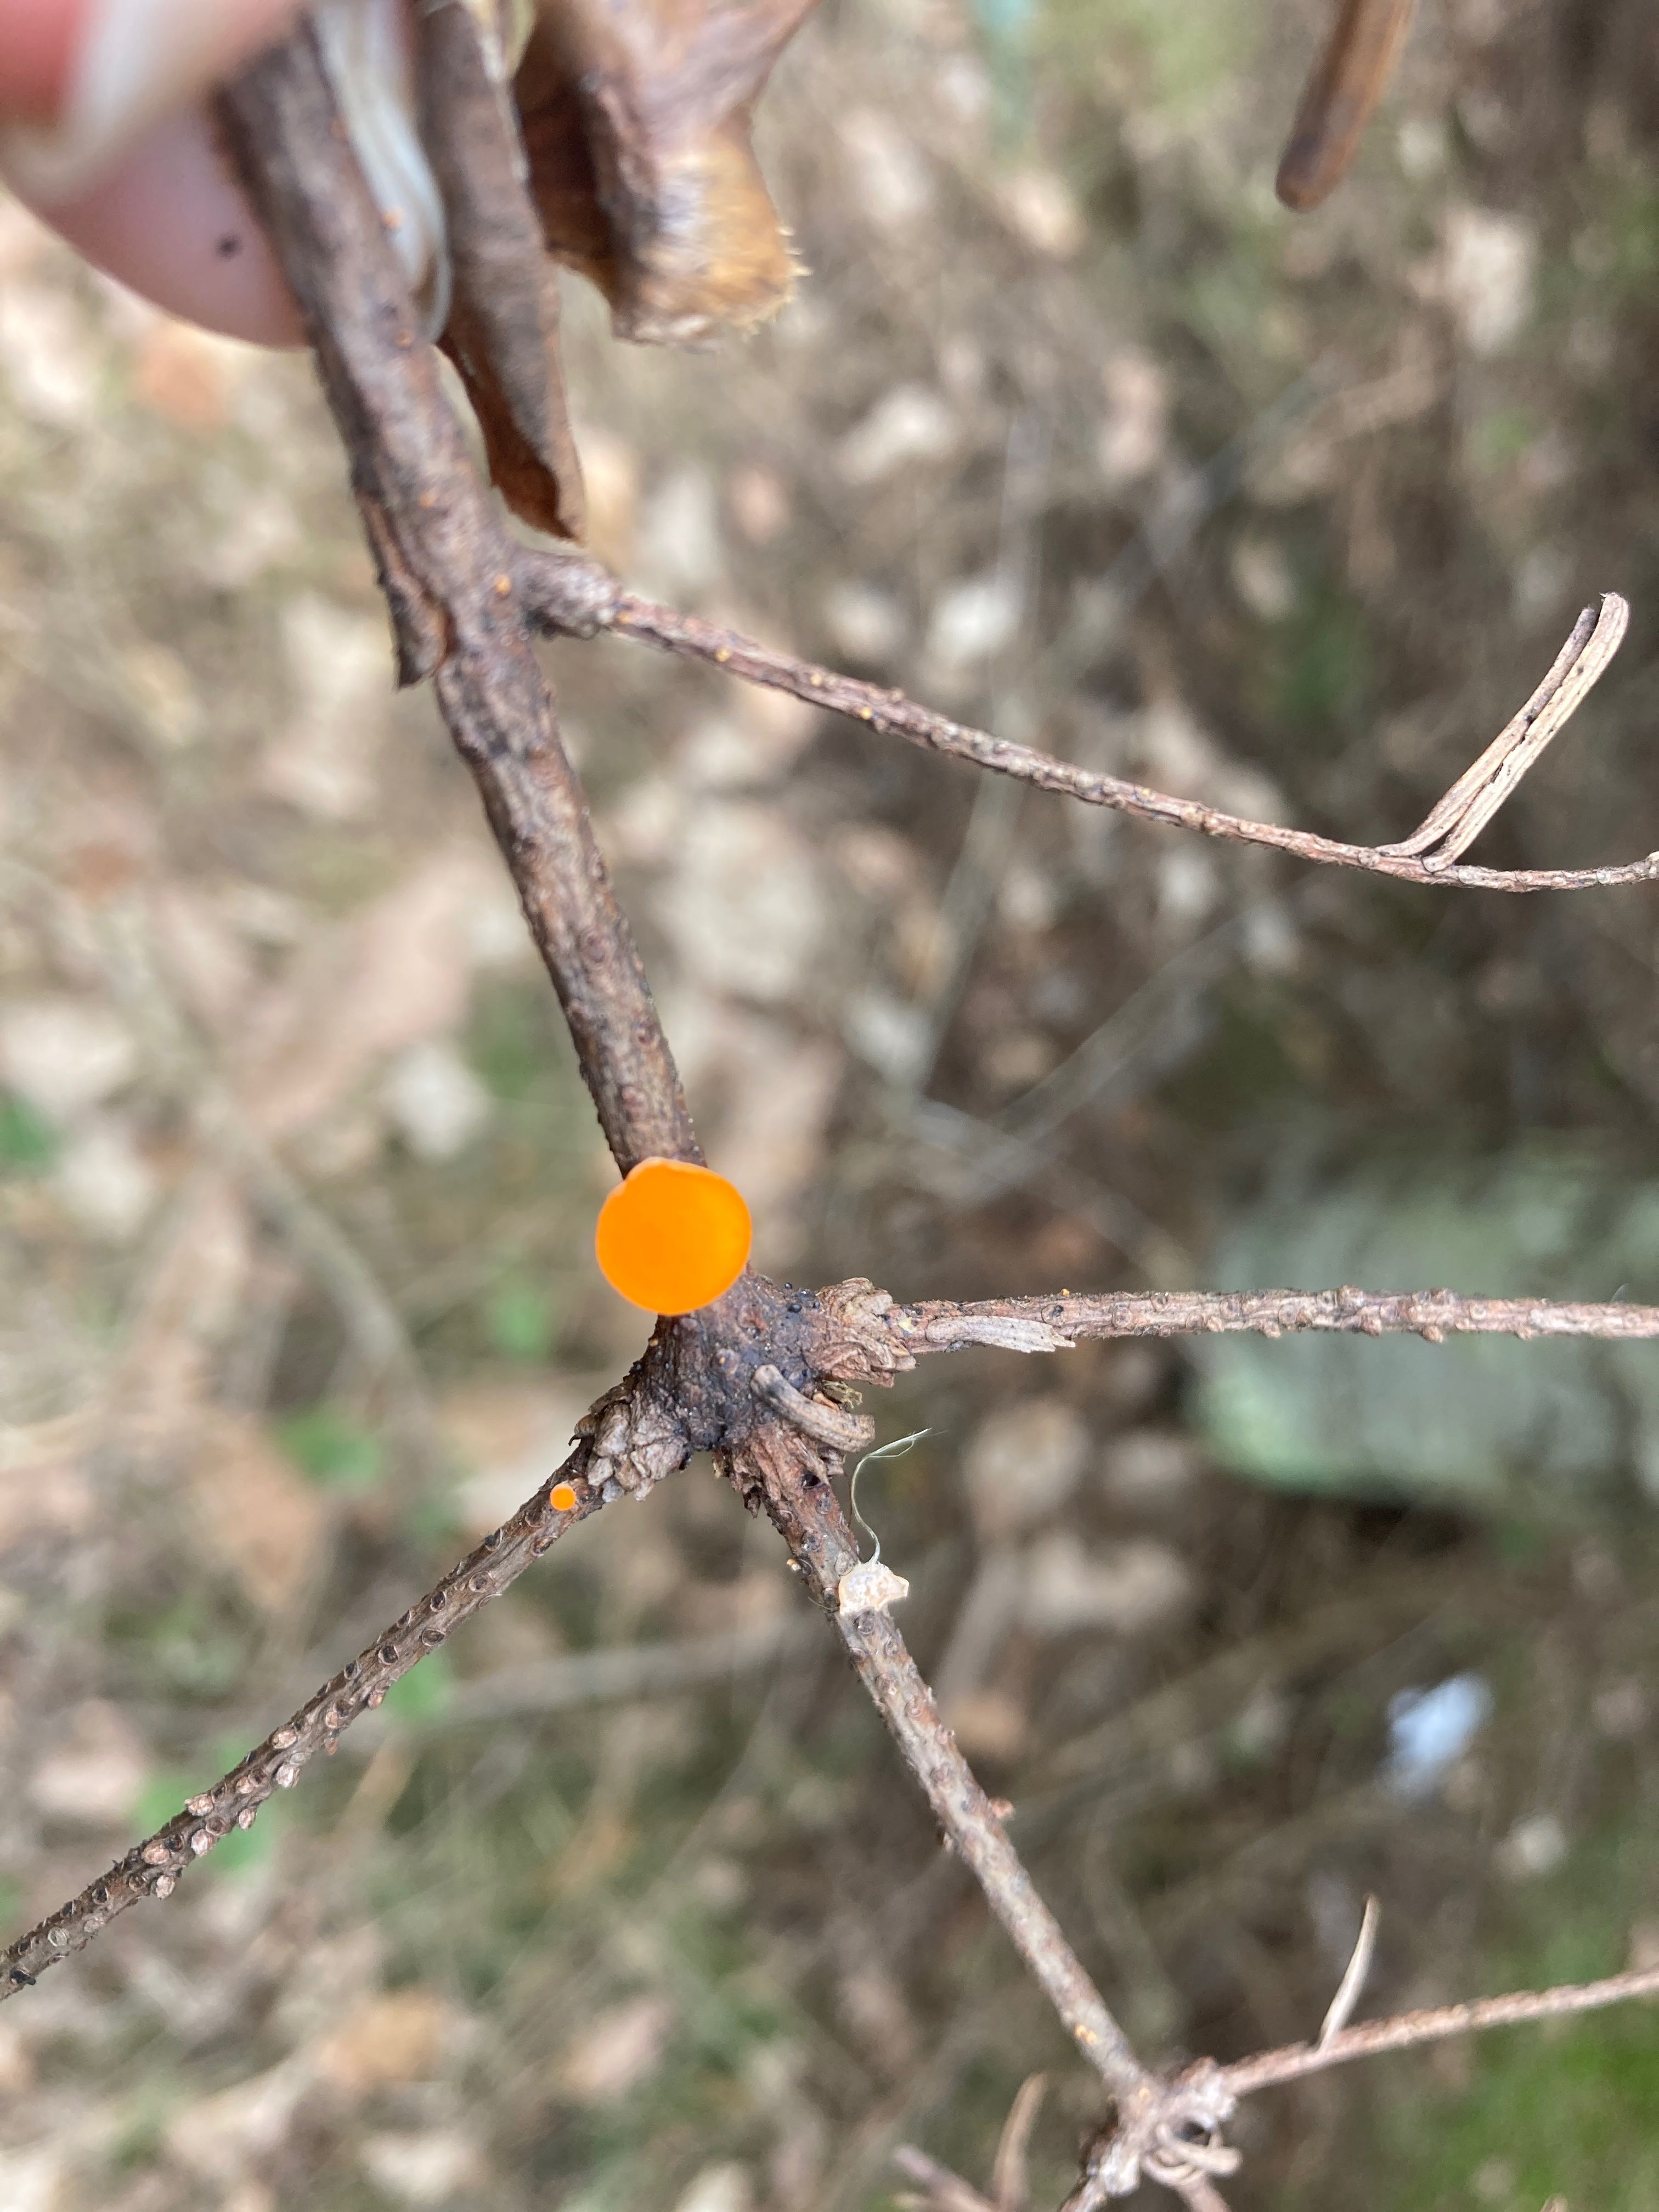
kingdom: Fungi
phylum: Ascomycota
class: Pezizomycetes
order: Pezizales
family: Sarcoscyphaceae
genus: Pithya
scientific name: Pithya vulgaris
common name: stor dukatbæger
